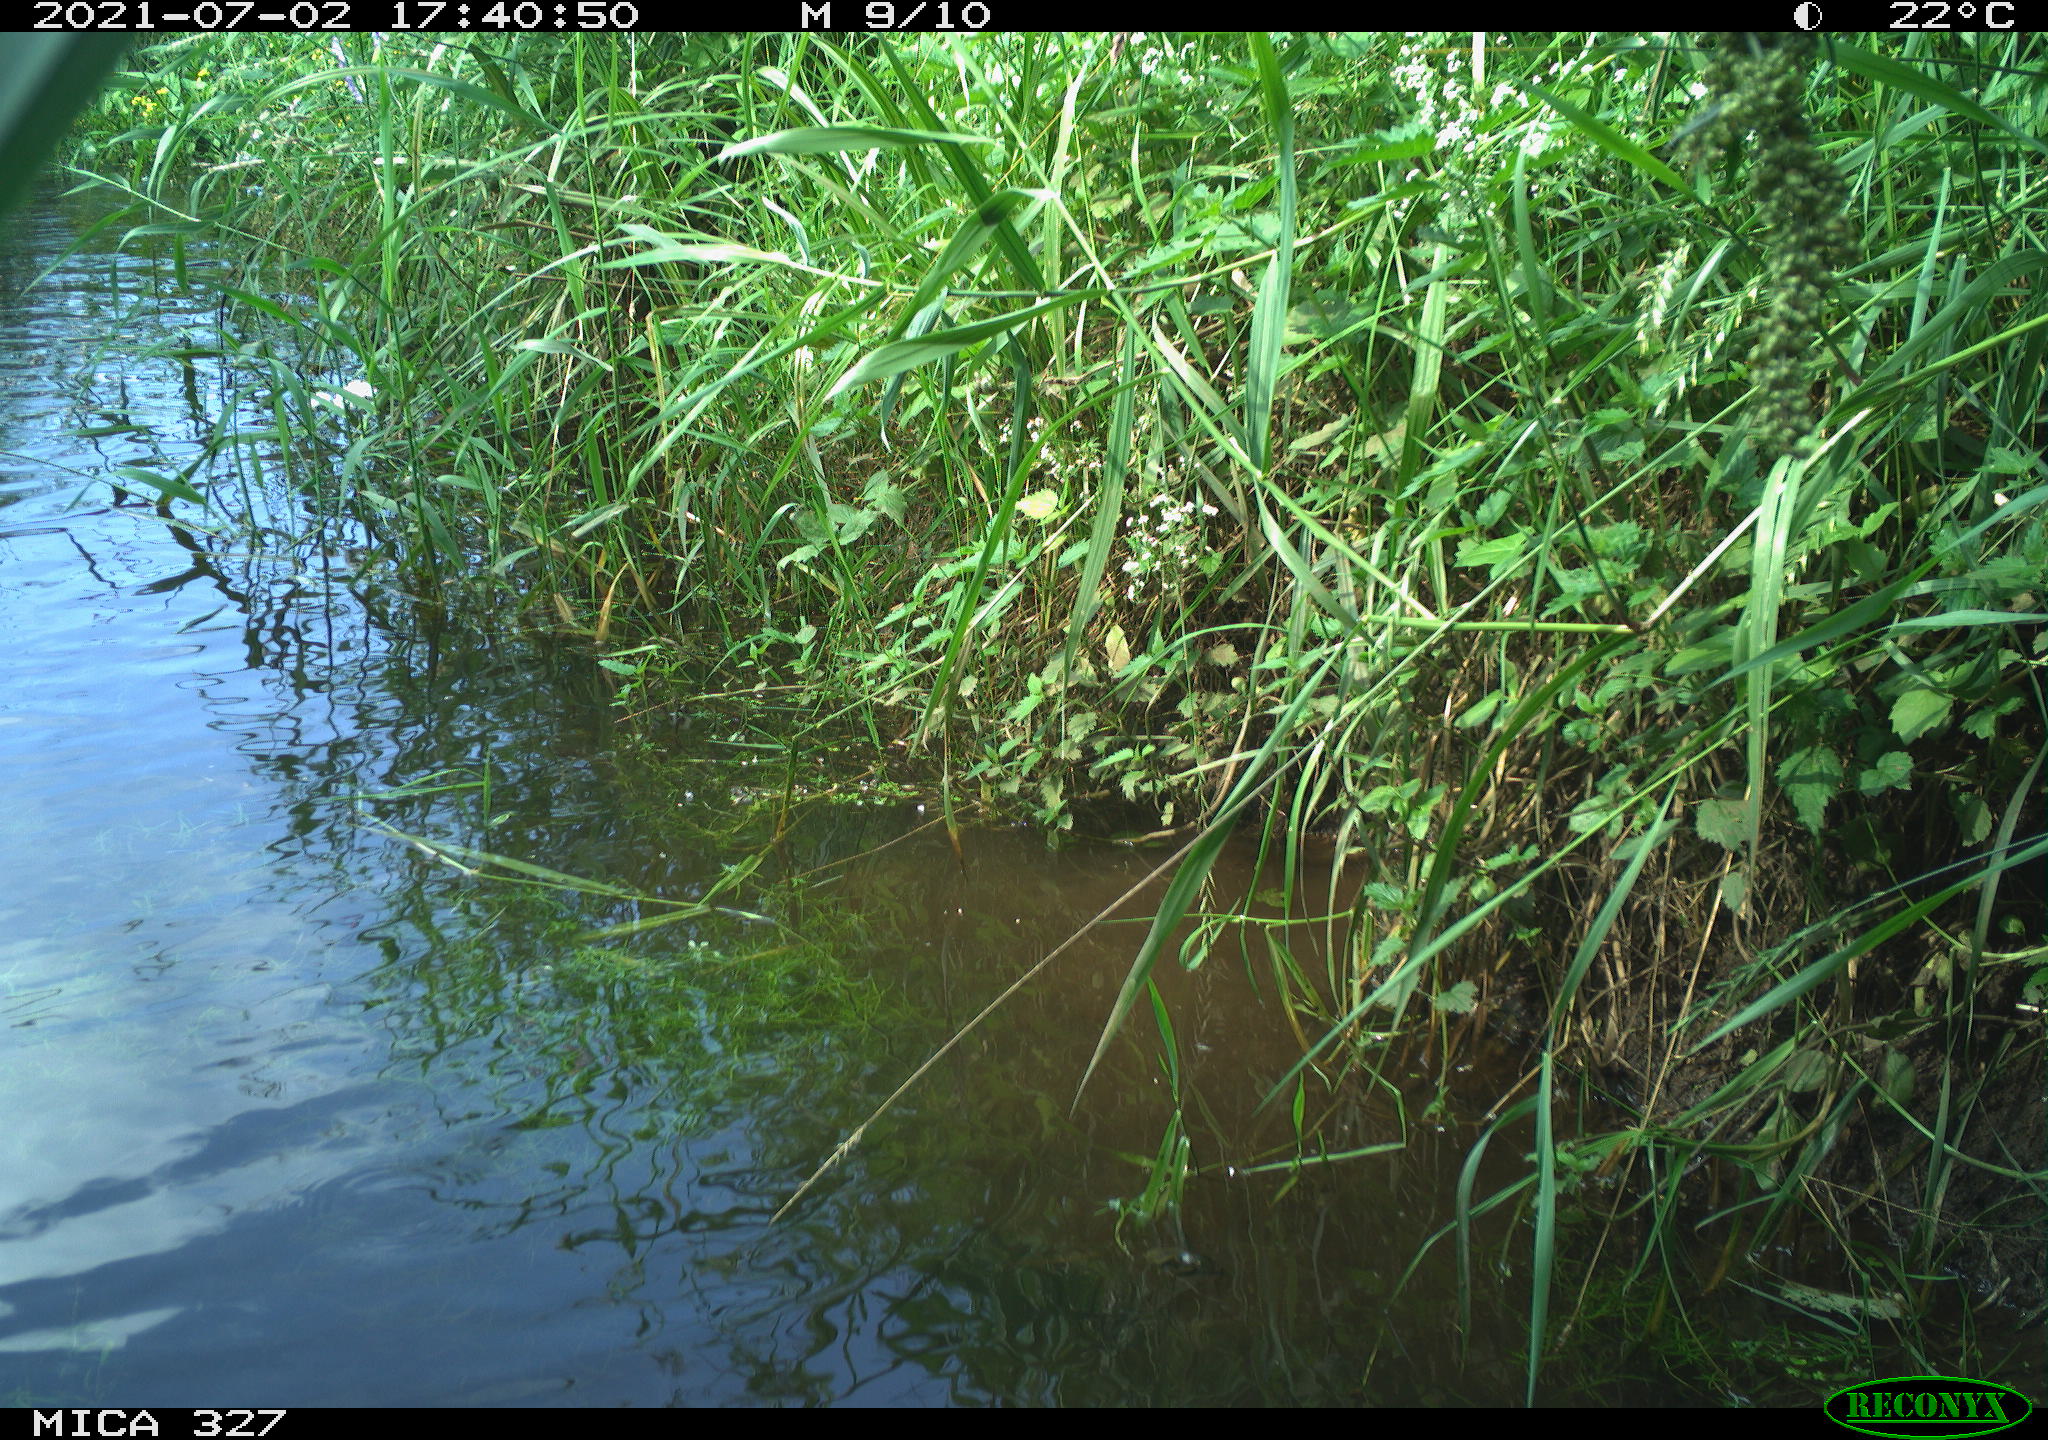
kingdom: Animalia
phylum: Chordata
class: Mammalia
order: Rodentia
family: Cricetidae
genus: Ondatra
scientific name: Ondatra zibethicus
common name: Muskrat
